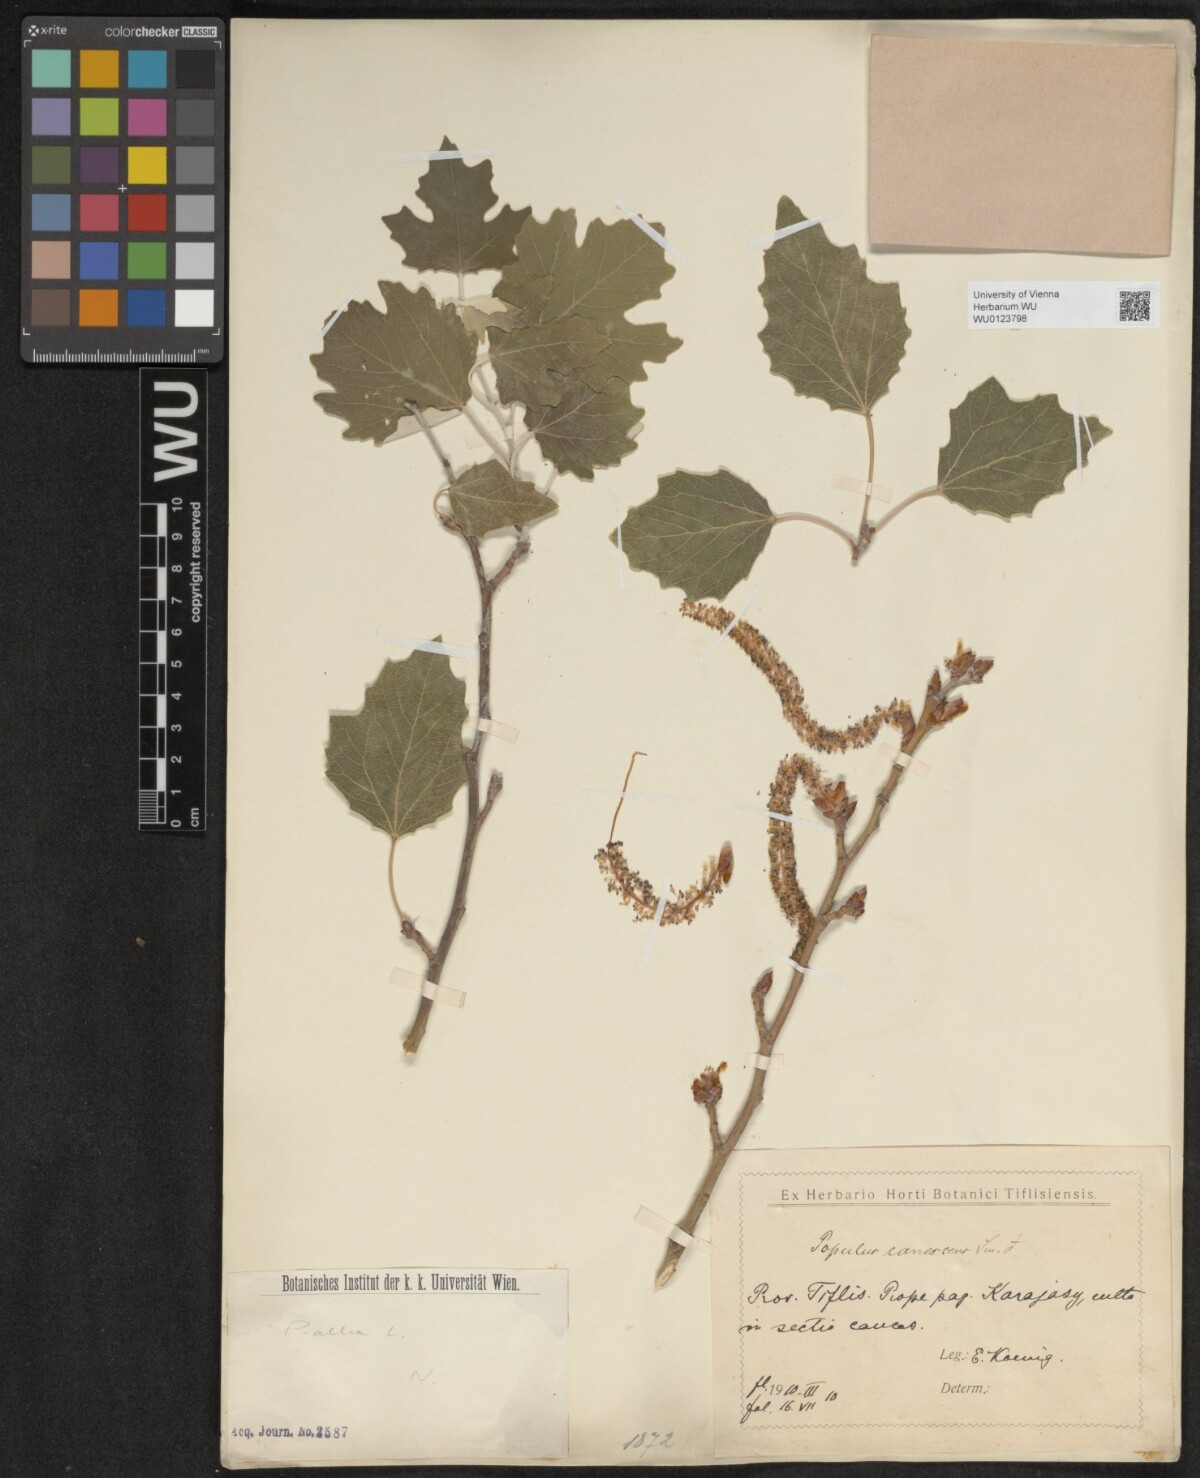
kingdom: Plantae
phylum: Tracheophyta
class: Magnoliopsida
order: Malpighiales
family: Salicaceae
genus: Populus
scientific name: Populus alba
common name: White poplar
